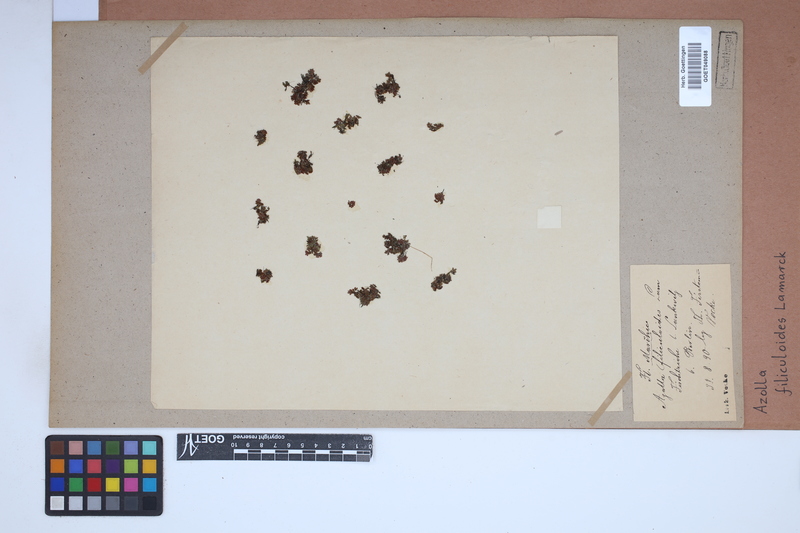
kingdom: Plantae
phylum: Tracheophyta
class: Polypodiopsida
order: Salviniales
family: Salviniaceae
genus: Azolla
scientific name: Azolla filiculoides
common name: Water fern
